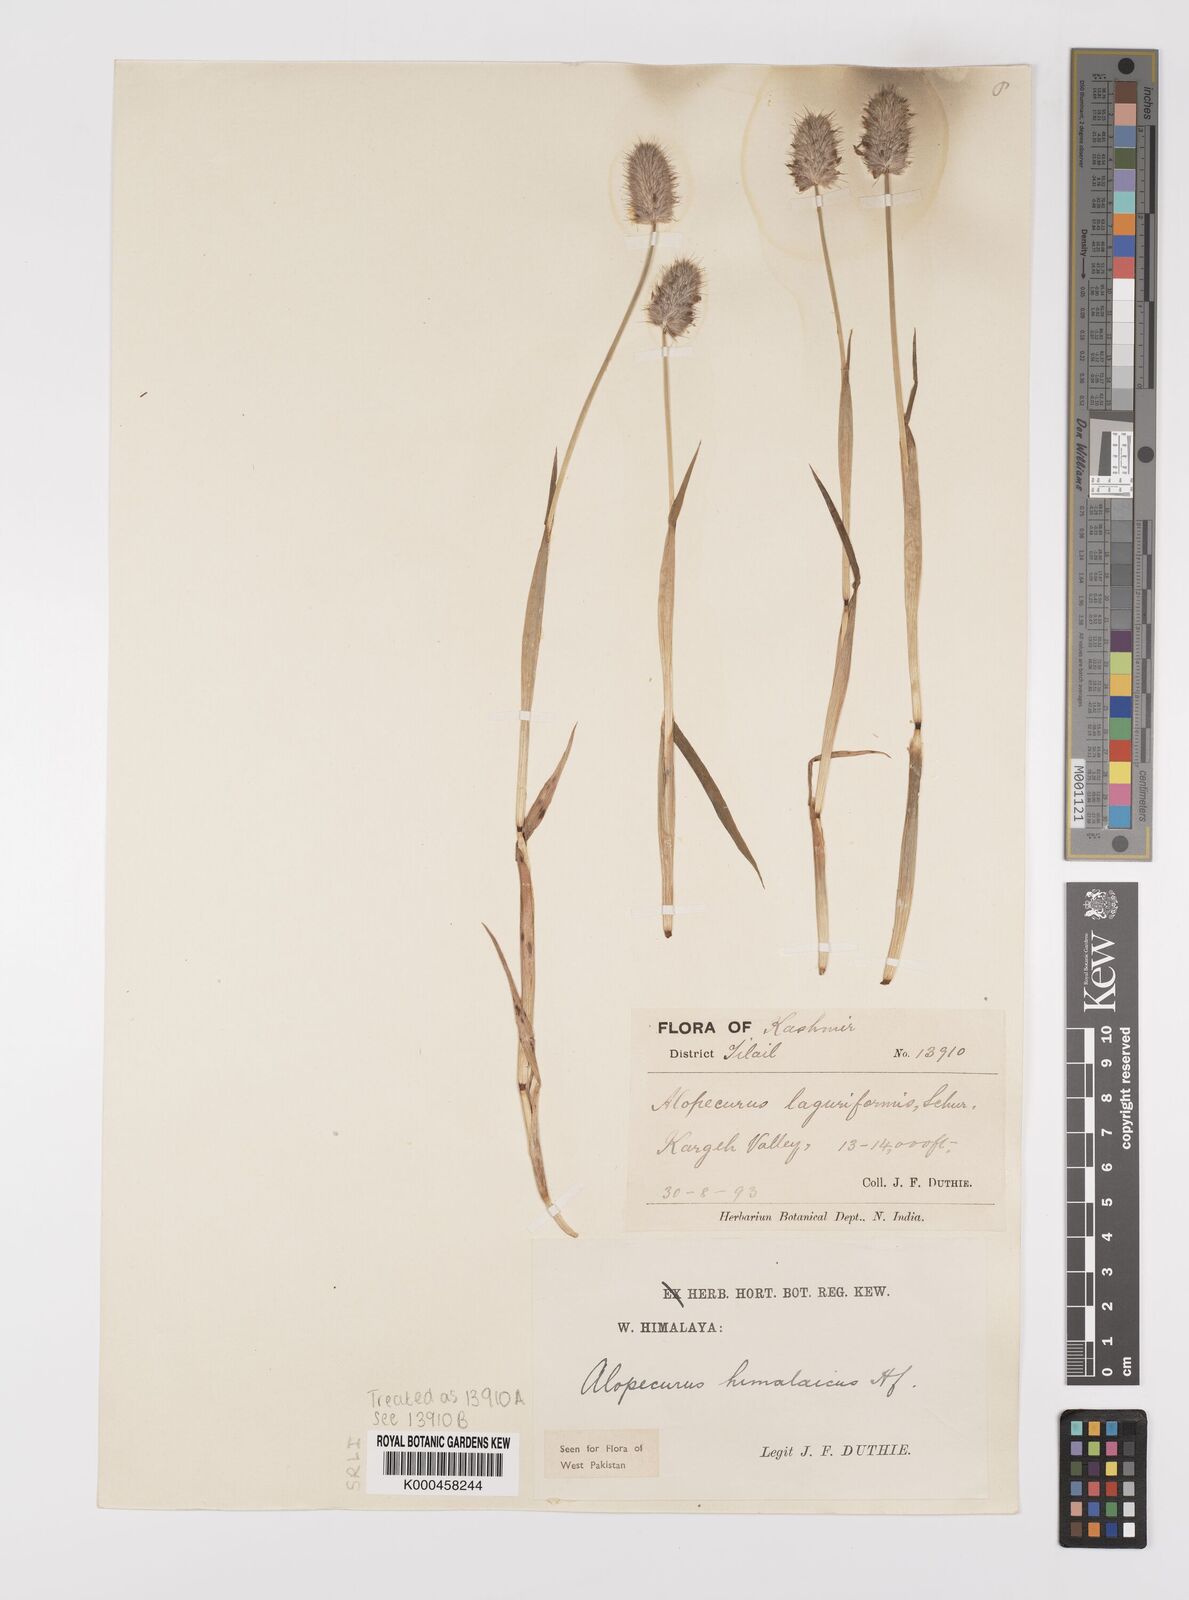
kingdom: Plantae
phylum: Tracheophyta
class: Liliopsida
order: Poales
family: Poaceae
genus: Alopecurus
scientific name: Alopecurus himalaicus
